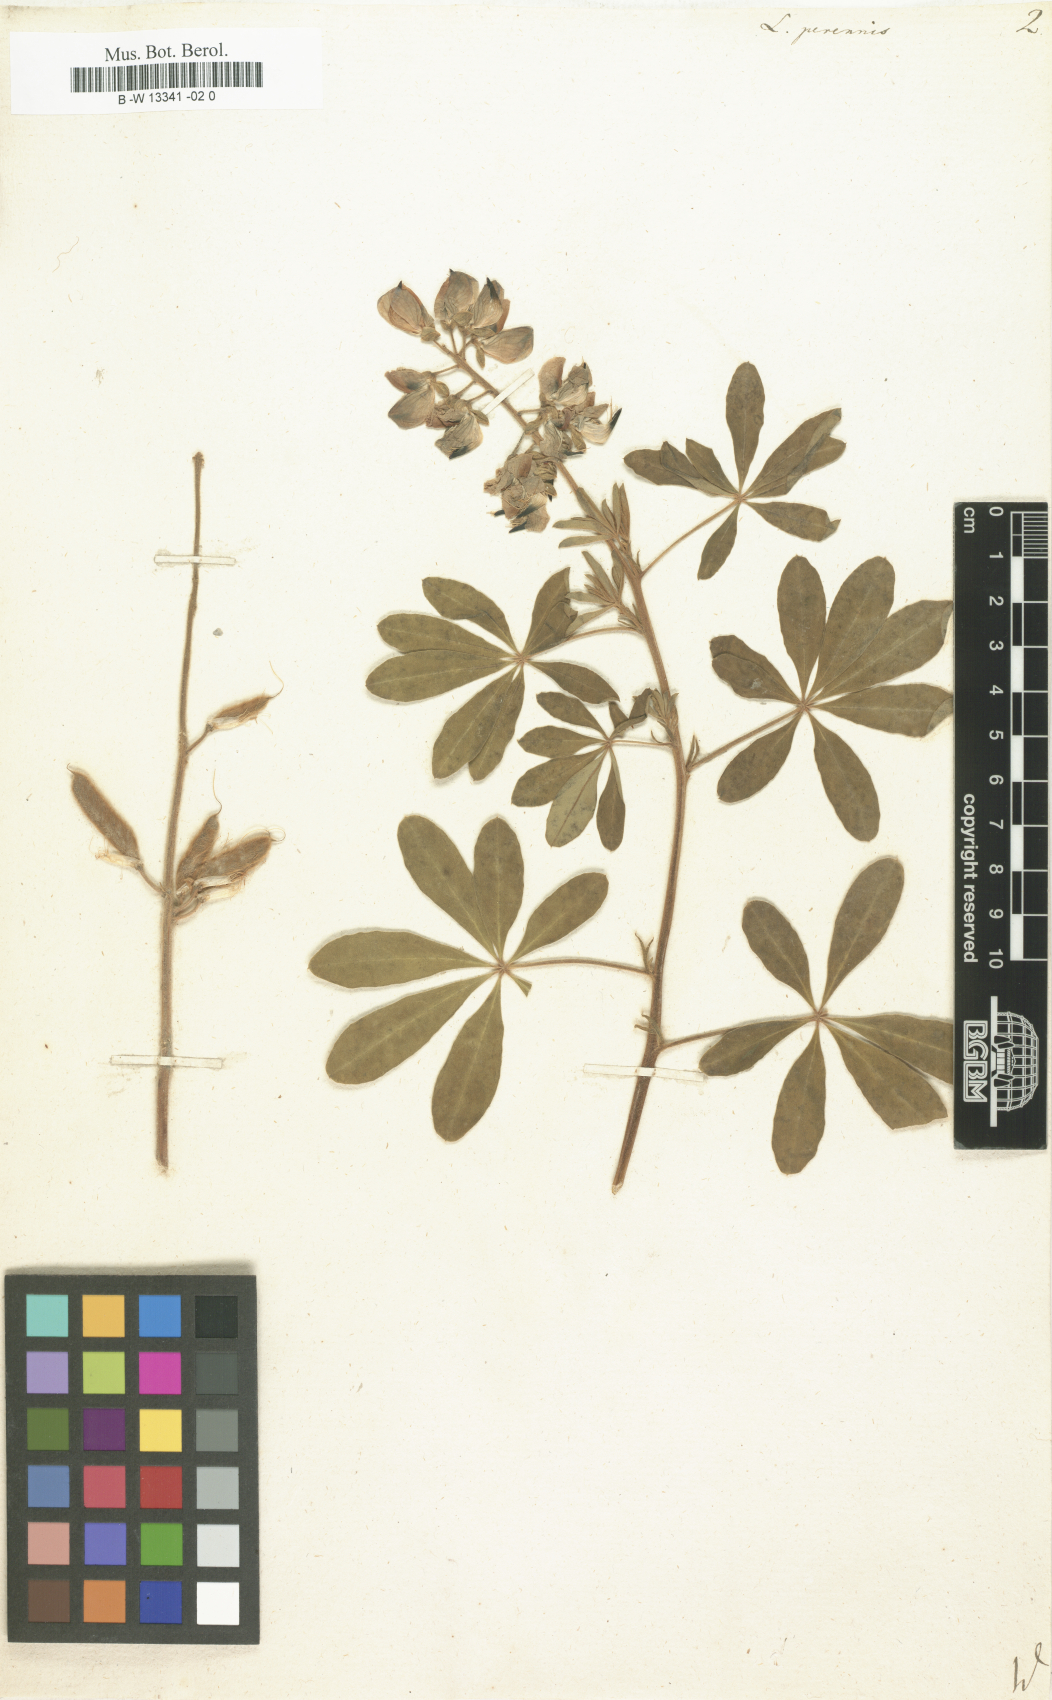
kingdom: Plantae
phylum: Tracheophyta
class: Magnoliopsida
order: Fabales
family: Fabaceae
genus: Lupinus
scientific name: Lupinus perennis
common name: Sundial lupine
